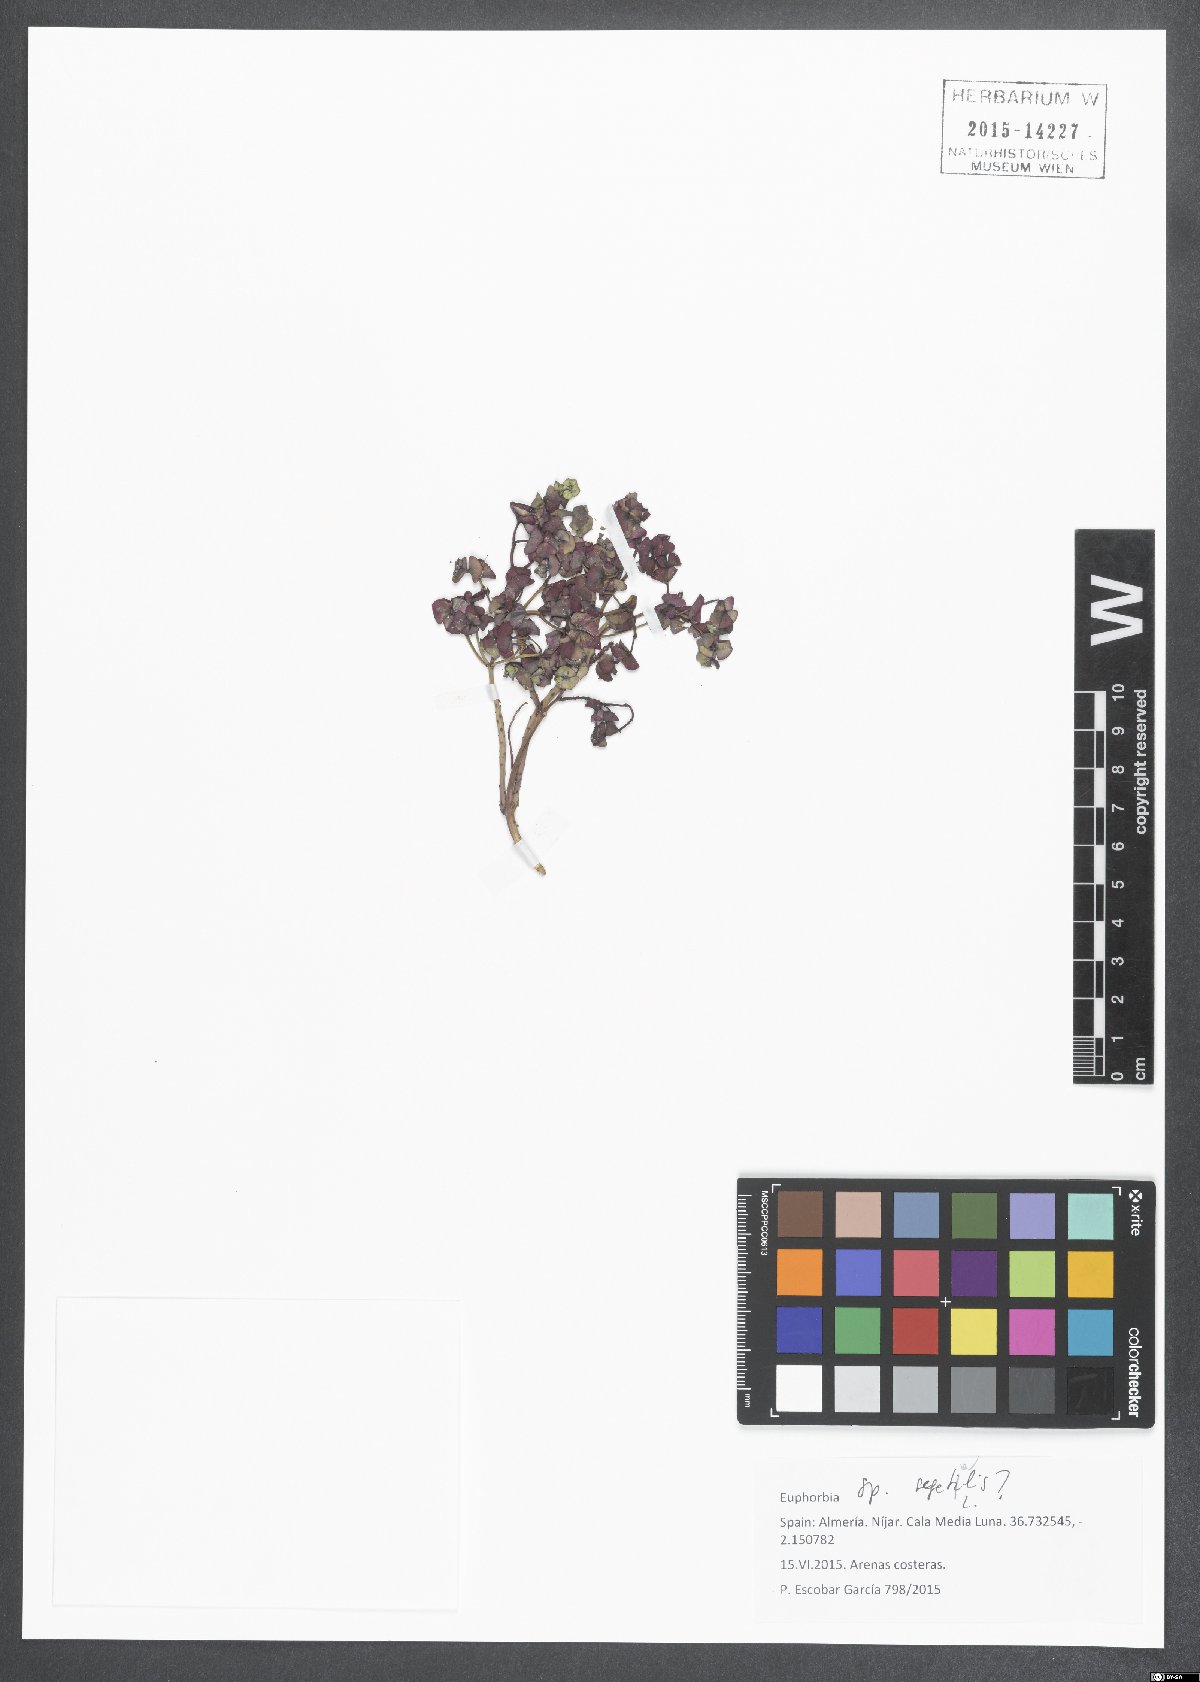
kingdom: Plantae
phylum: Tracheophyta
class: Magnoliopsida
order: Malpighiales
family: Euphorbiaceae
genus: Euphorbia
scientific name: Euphorbia segetalis
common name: Corn spurge
